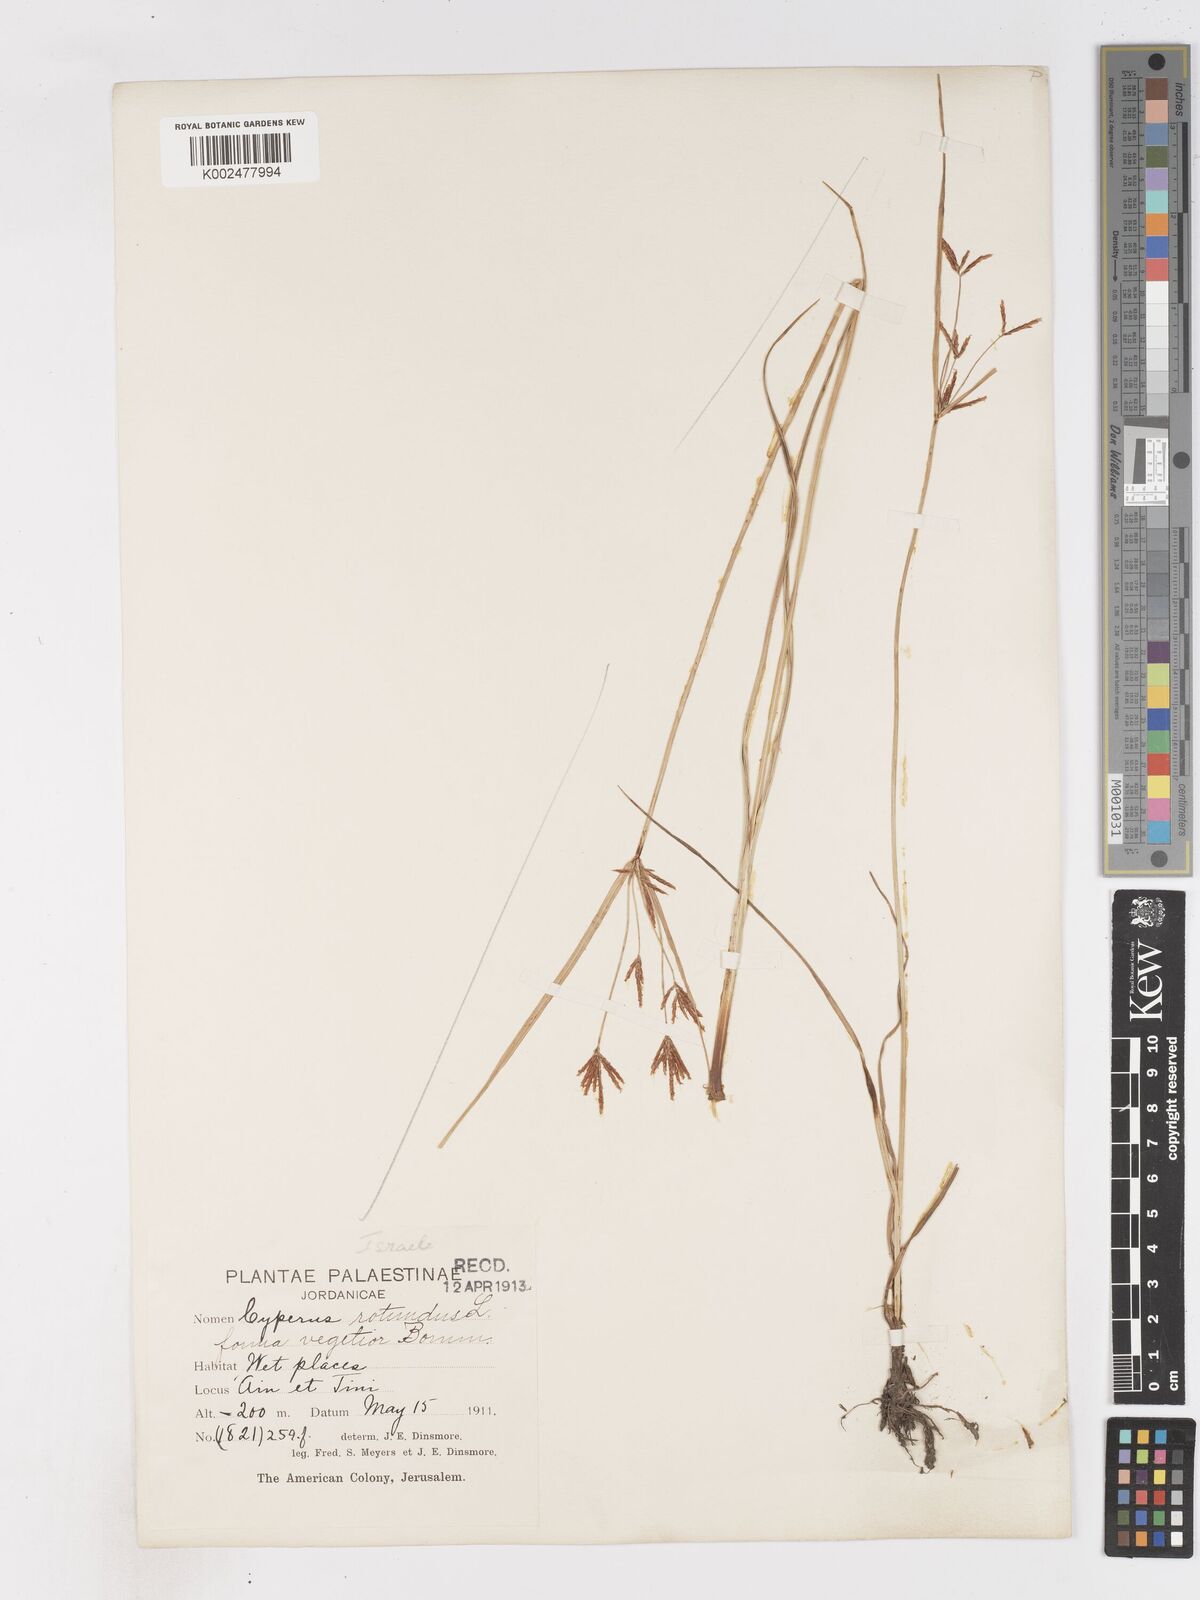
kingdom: Plantae
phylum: Tracheophyta
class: Liliopsida
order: Poales
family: Cyperaceae
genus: Cyperus
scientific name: Cyperus rotundus
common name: Nutgrass
